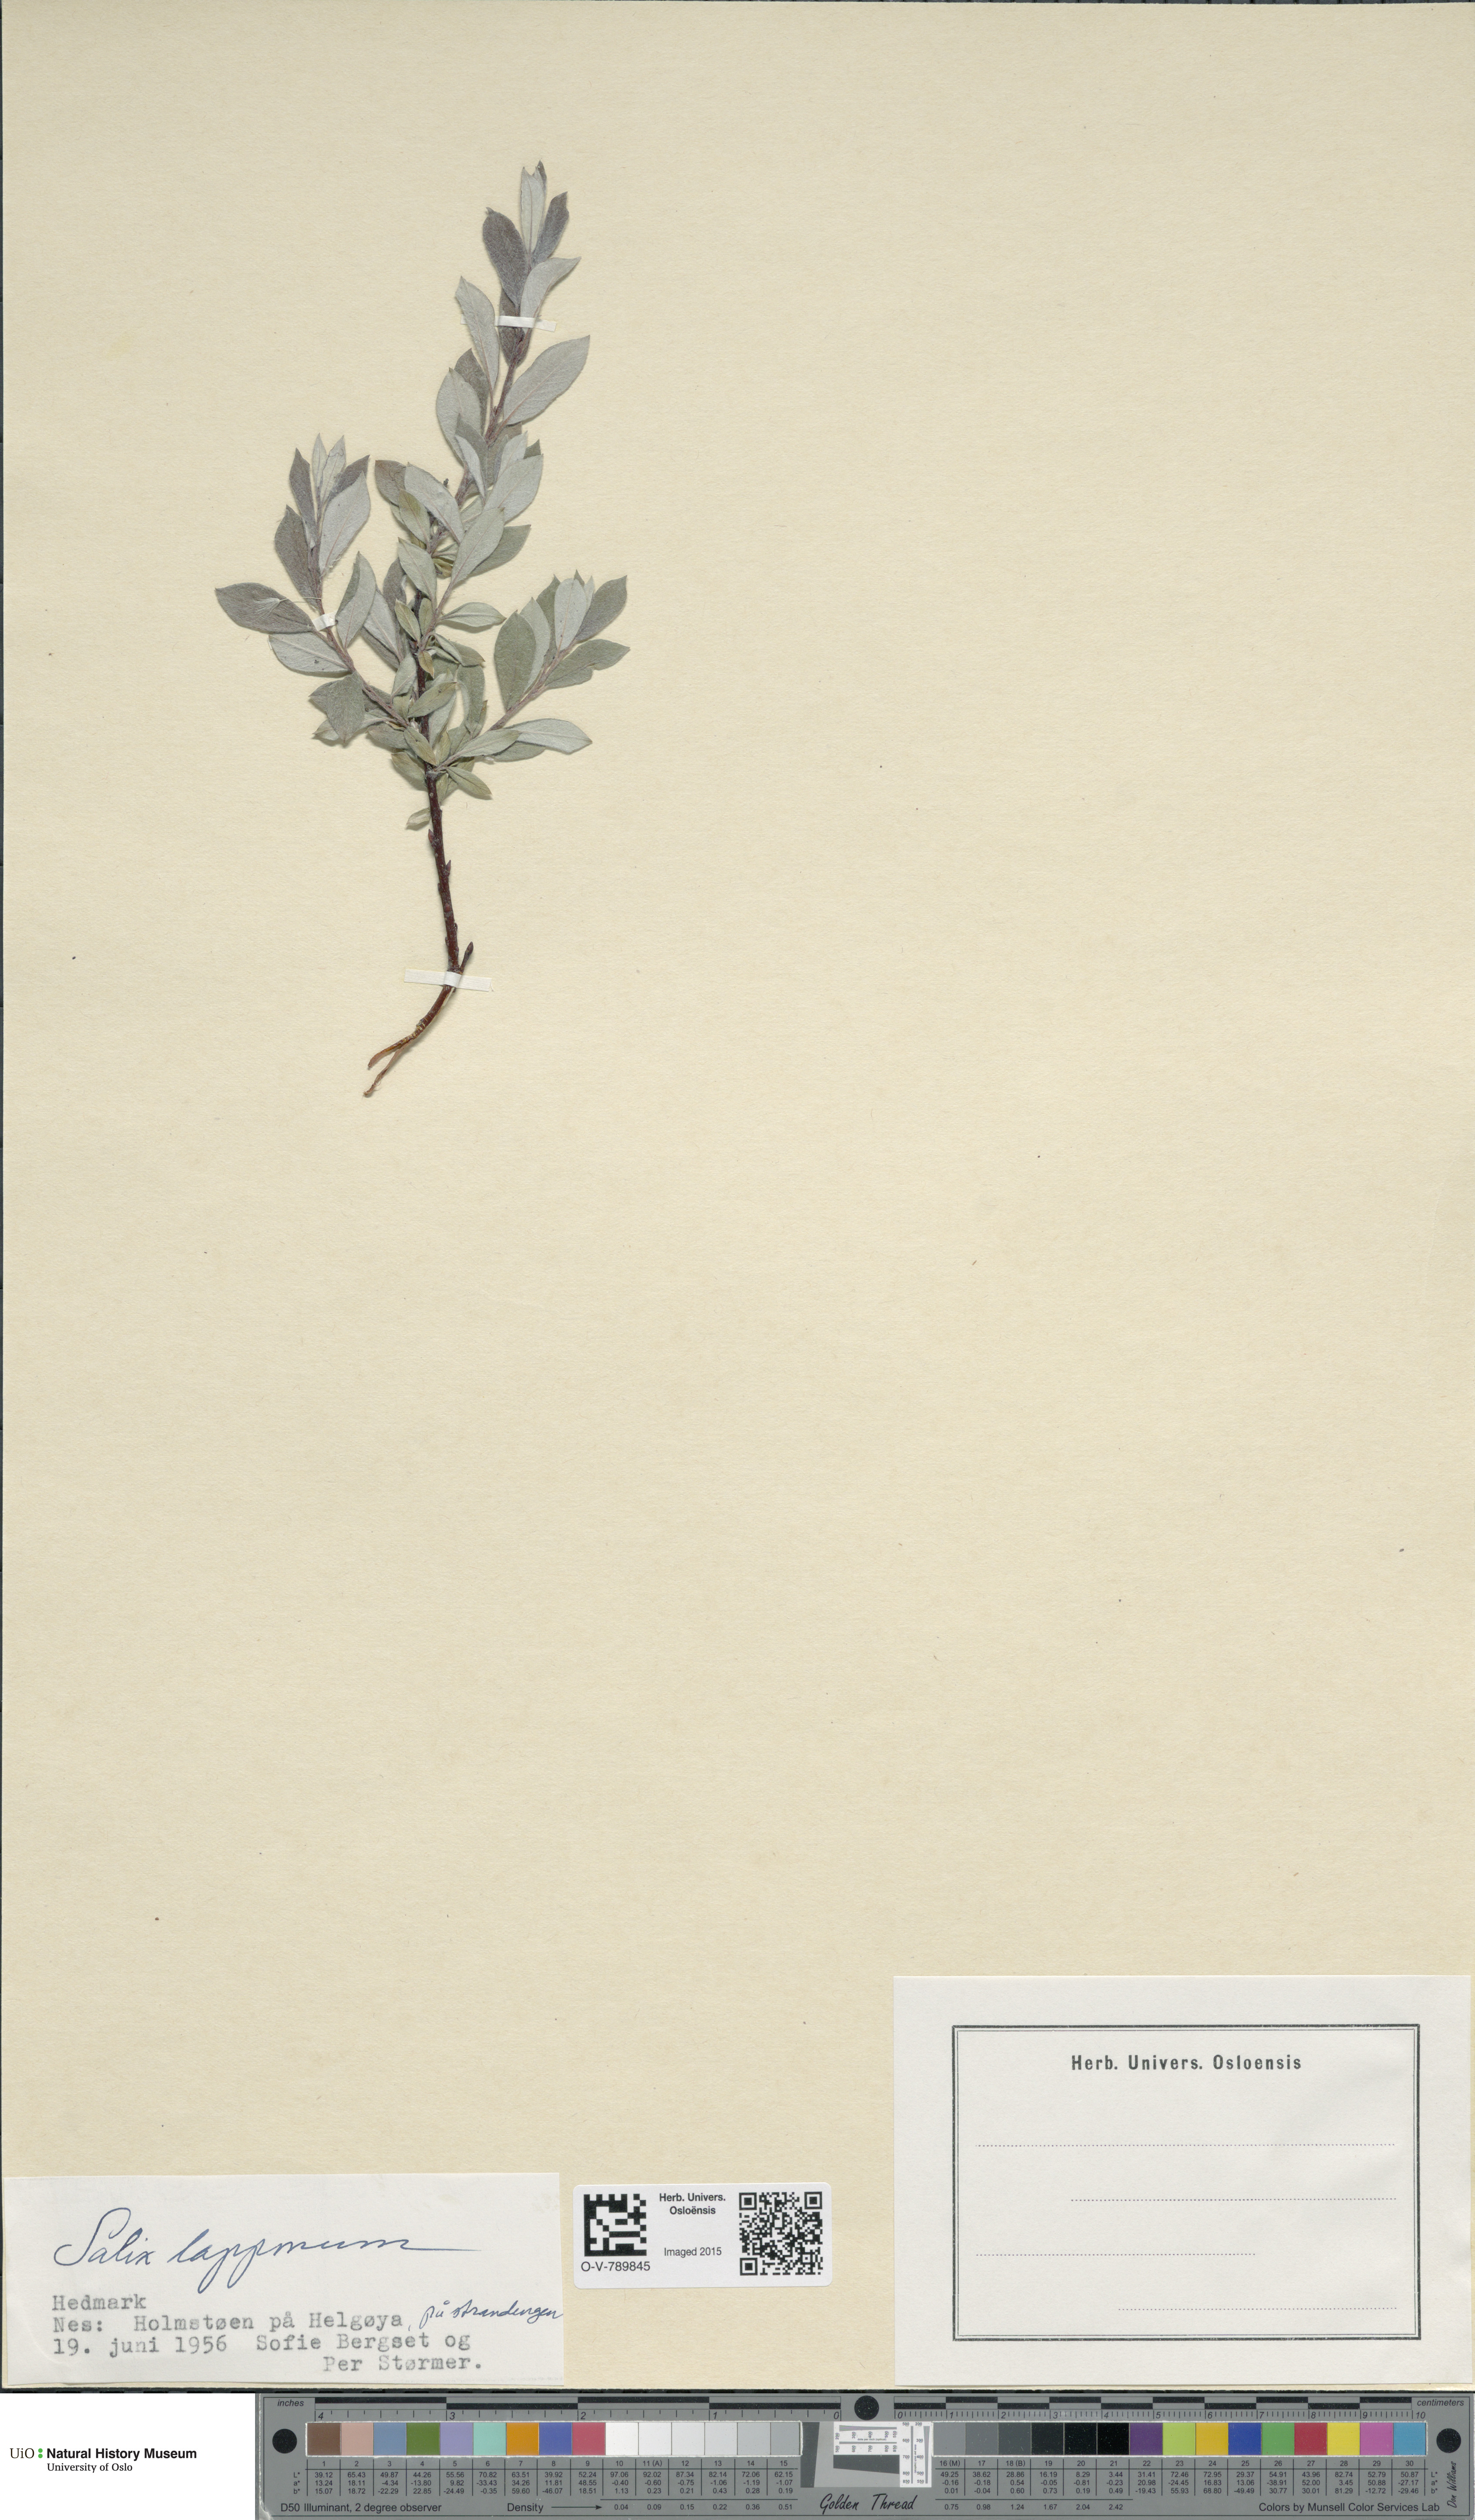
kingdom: Plantae
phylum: Tracheophyta
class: Magnoliopsida
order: Malpighiales
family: Salicaceae
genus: Salix
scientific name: Salix lapponum
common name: Downy willow
